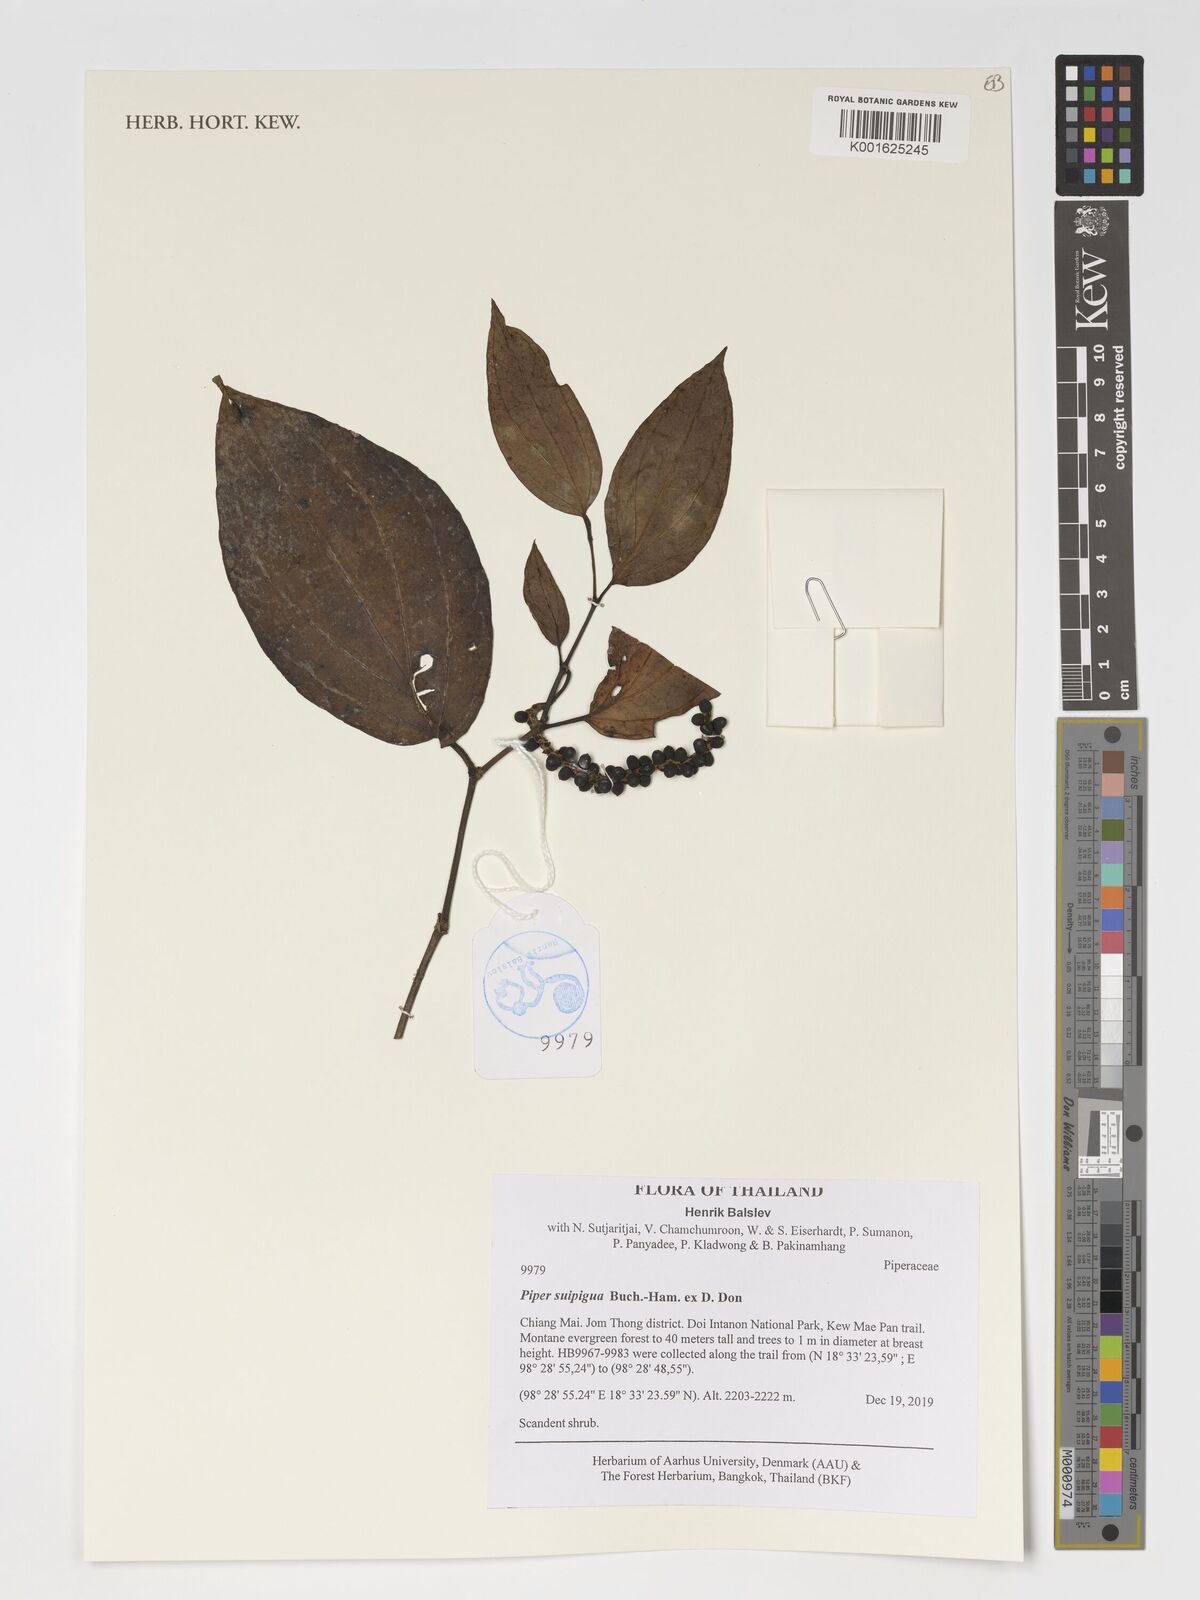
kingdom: Plantae
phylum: Tracheophyta
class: Magnoliopsida
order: Piperales
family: Piperaceae
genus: Piper
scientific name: Piper suipigua
